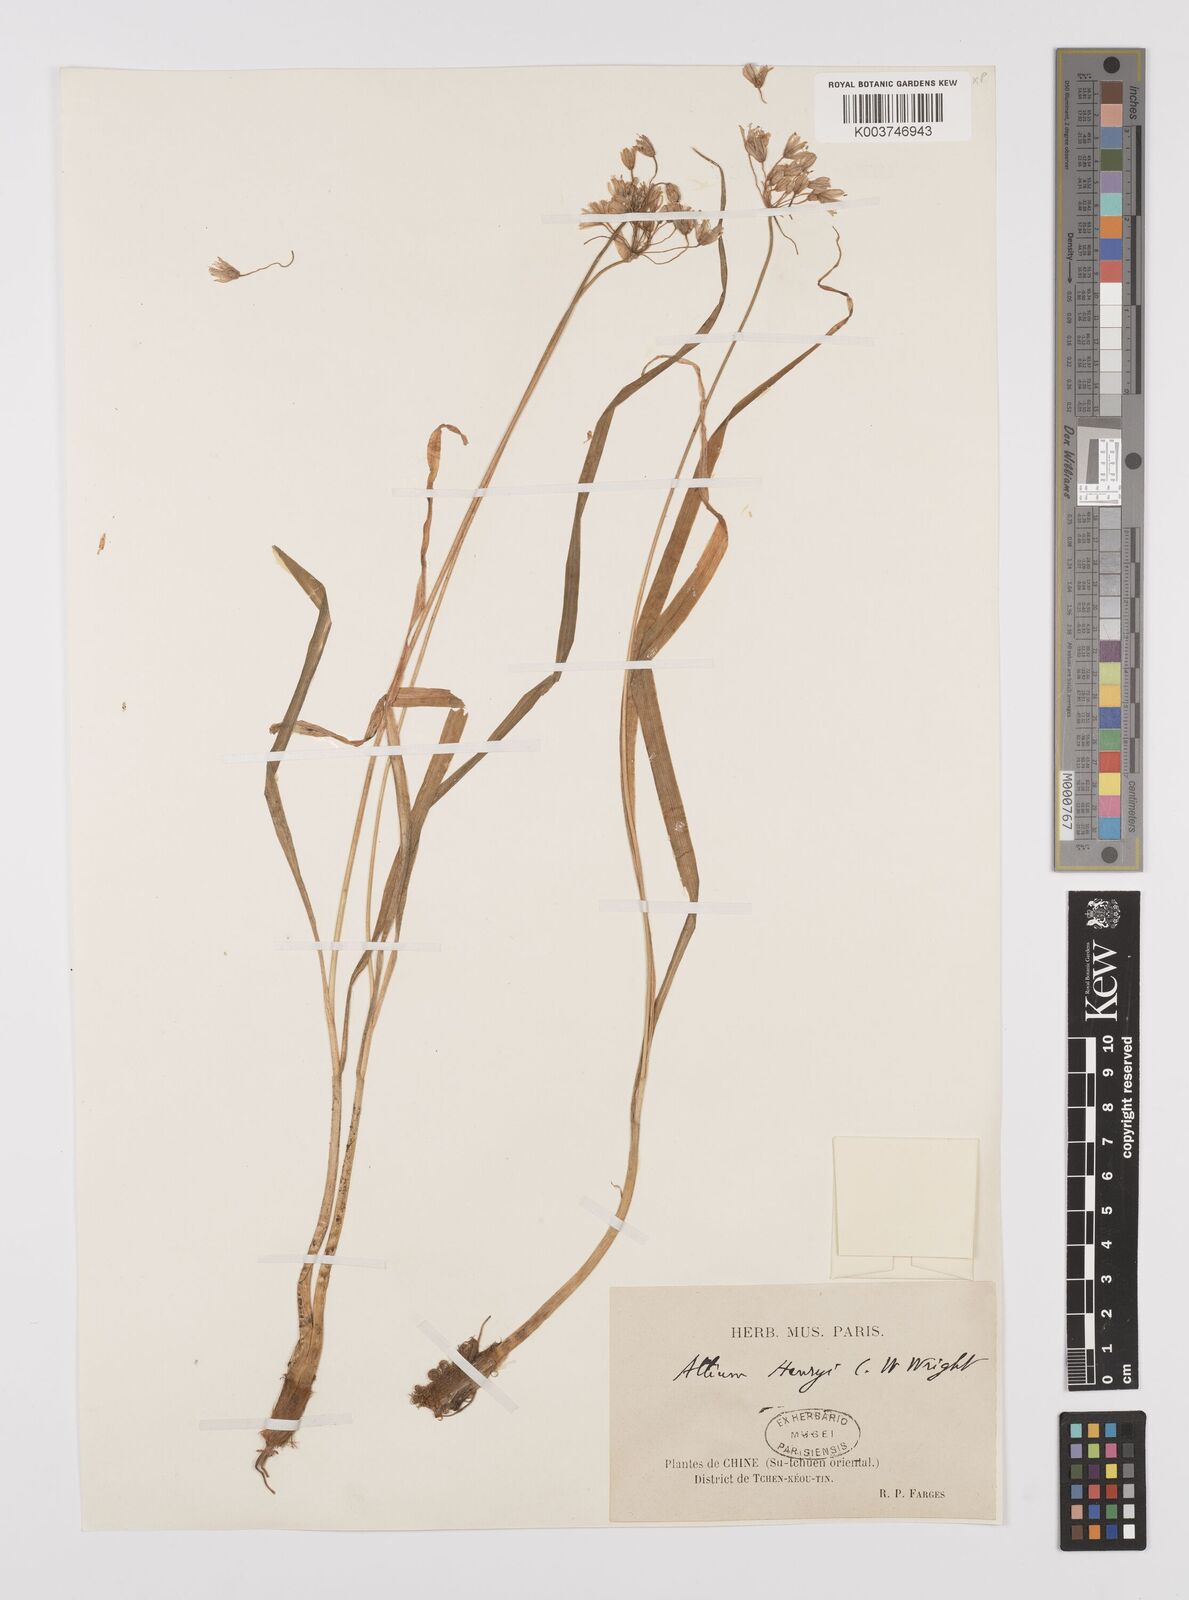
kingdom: Plantae
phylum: Tracheophyta
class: Liliopsida
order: Asparagales
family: Amaryllidaceae
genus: Allium
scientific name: Allium
